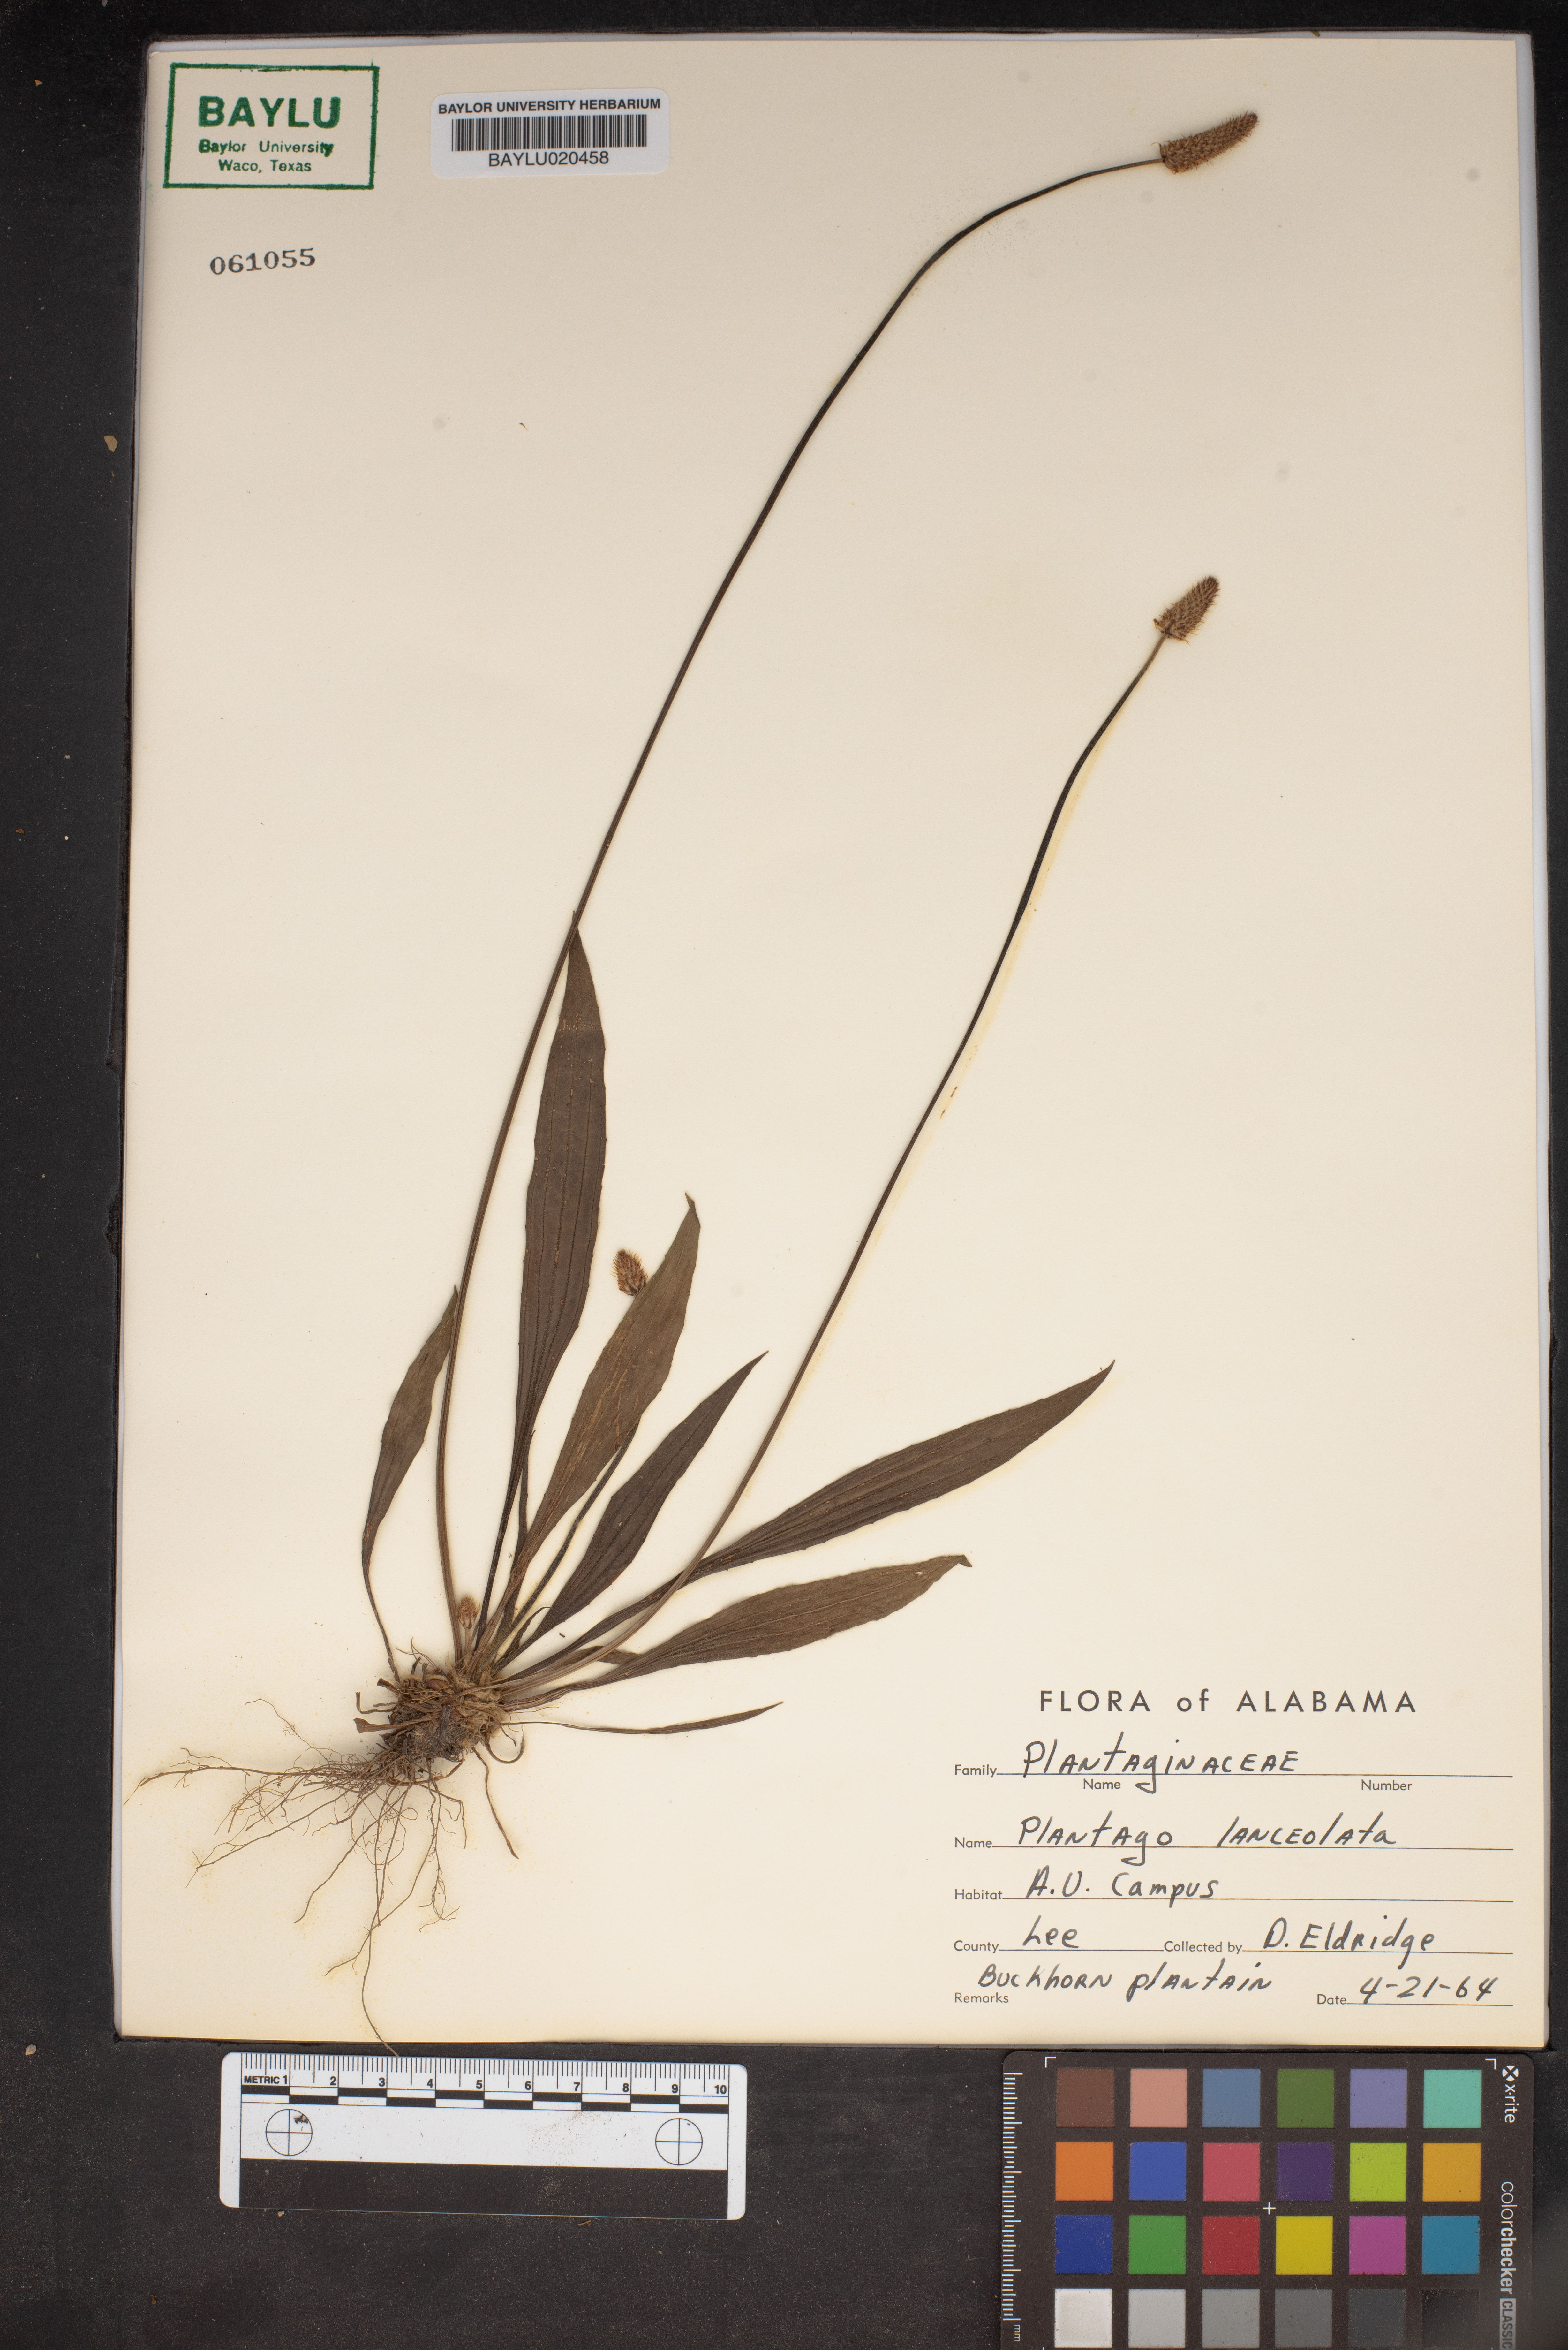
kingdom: Plantae
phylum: Tracheophyta
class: Magnoliopsida
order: Lamiales
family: Plantaginaceae
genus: Plantago
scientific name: Plantago lanceolata
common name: Ribwort plantain
